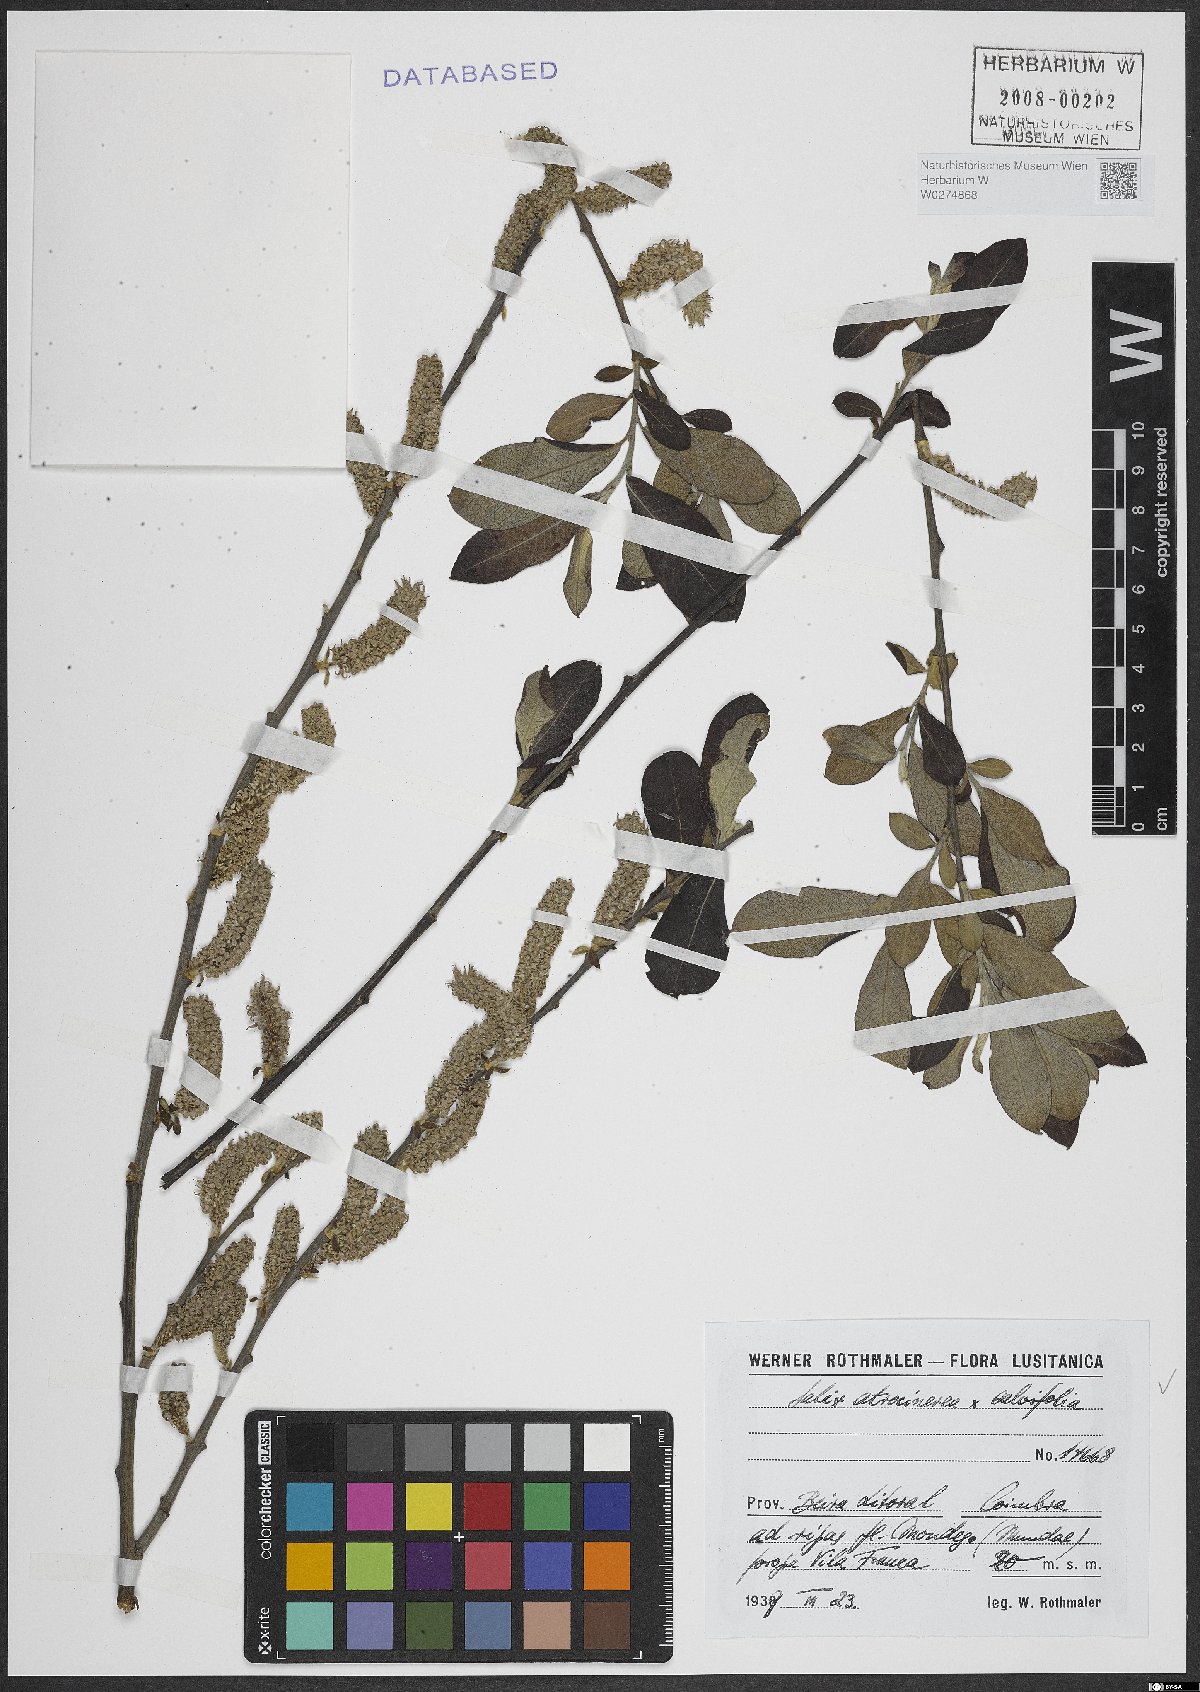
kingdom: Plantae
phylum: Tracheophyta
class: Magnoliopsida
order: Malpighiales
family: Salicaceae
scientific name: Salicaceae
